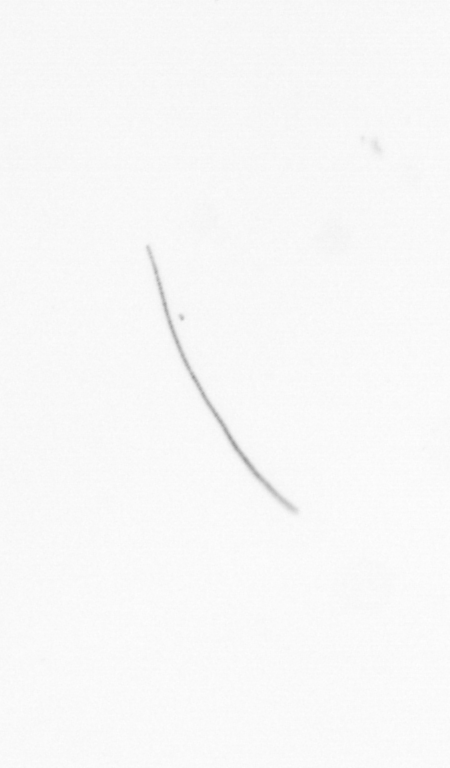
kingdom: Chromista
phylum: Ochrophyta
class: Bacillariophyceae
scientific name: Bacillariophyceae
